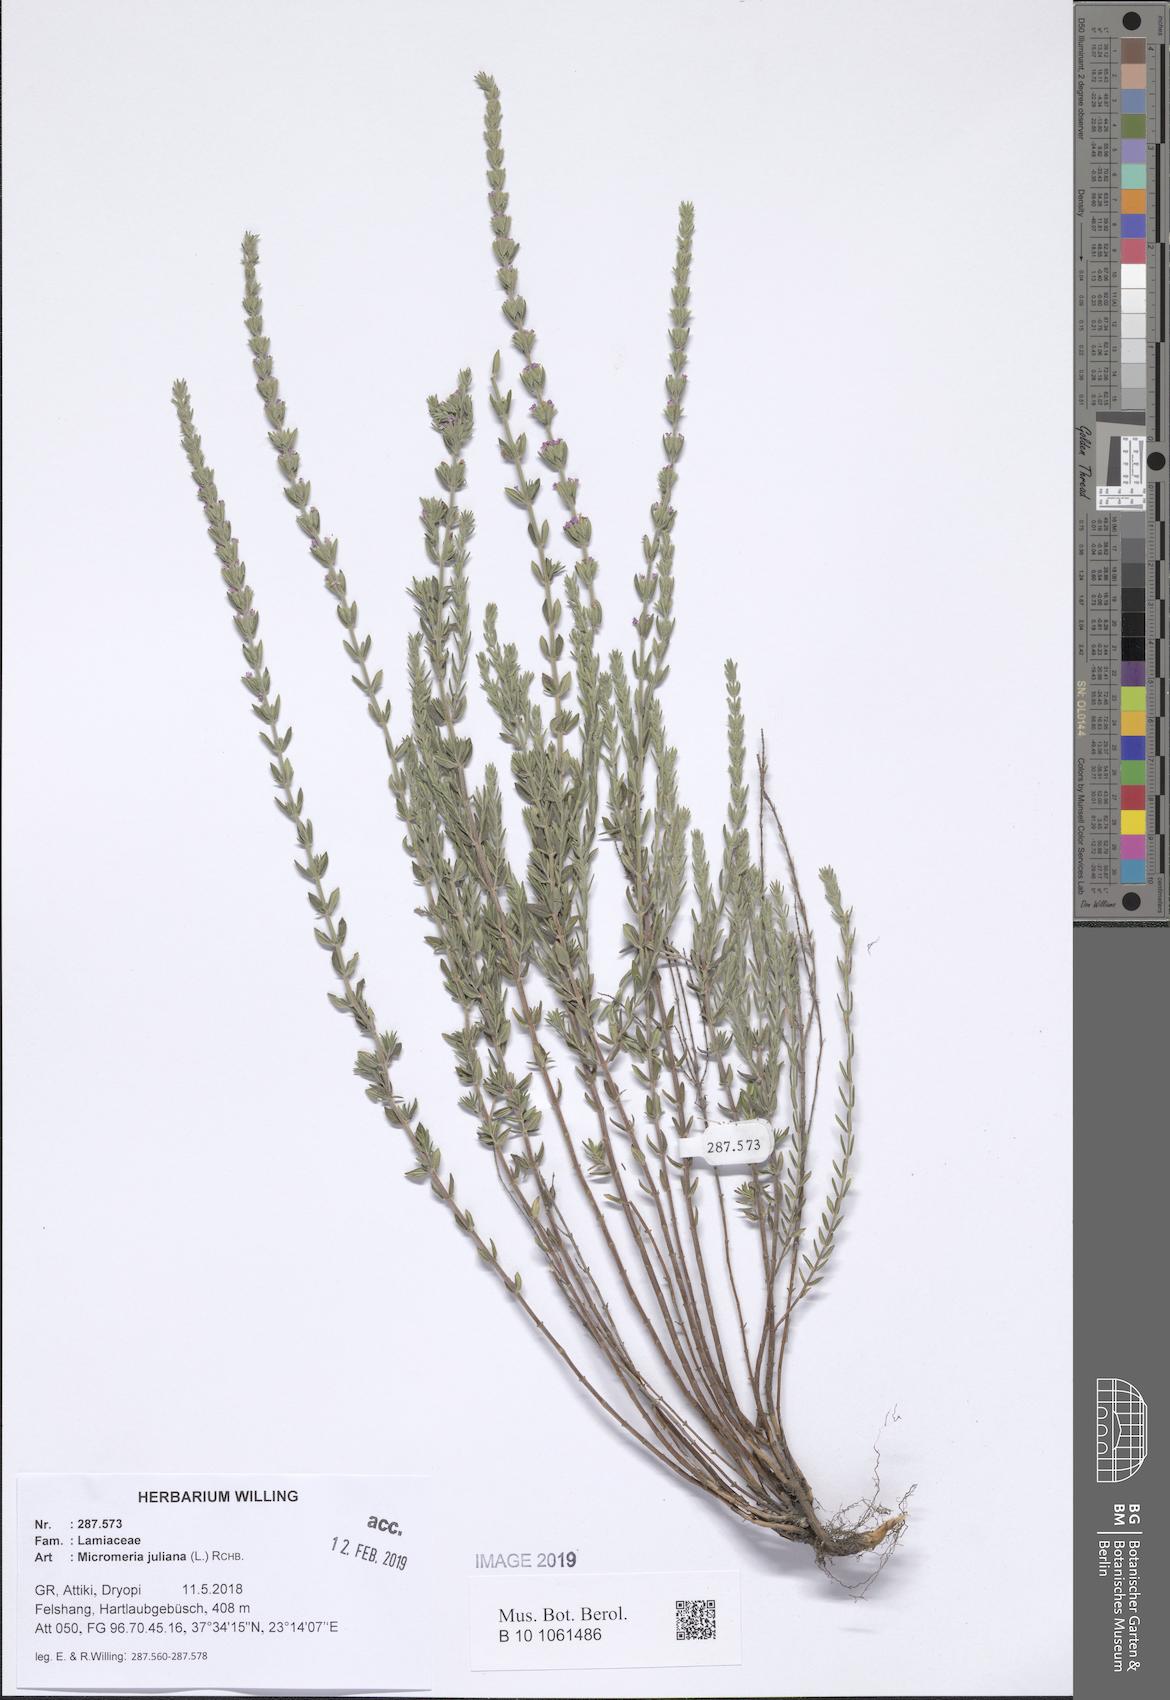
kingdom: Plantae
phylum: Tracheophyta
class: Magnoliopsida
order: Lamiales
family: Lamiaceae
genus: Micromeria
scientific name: Micromeria juliana
